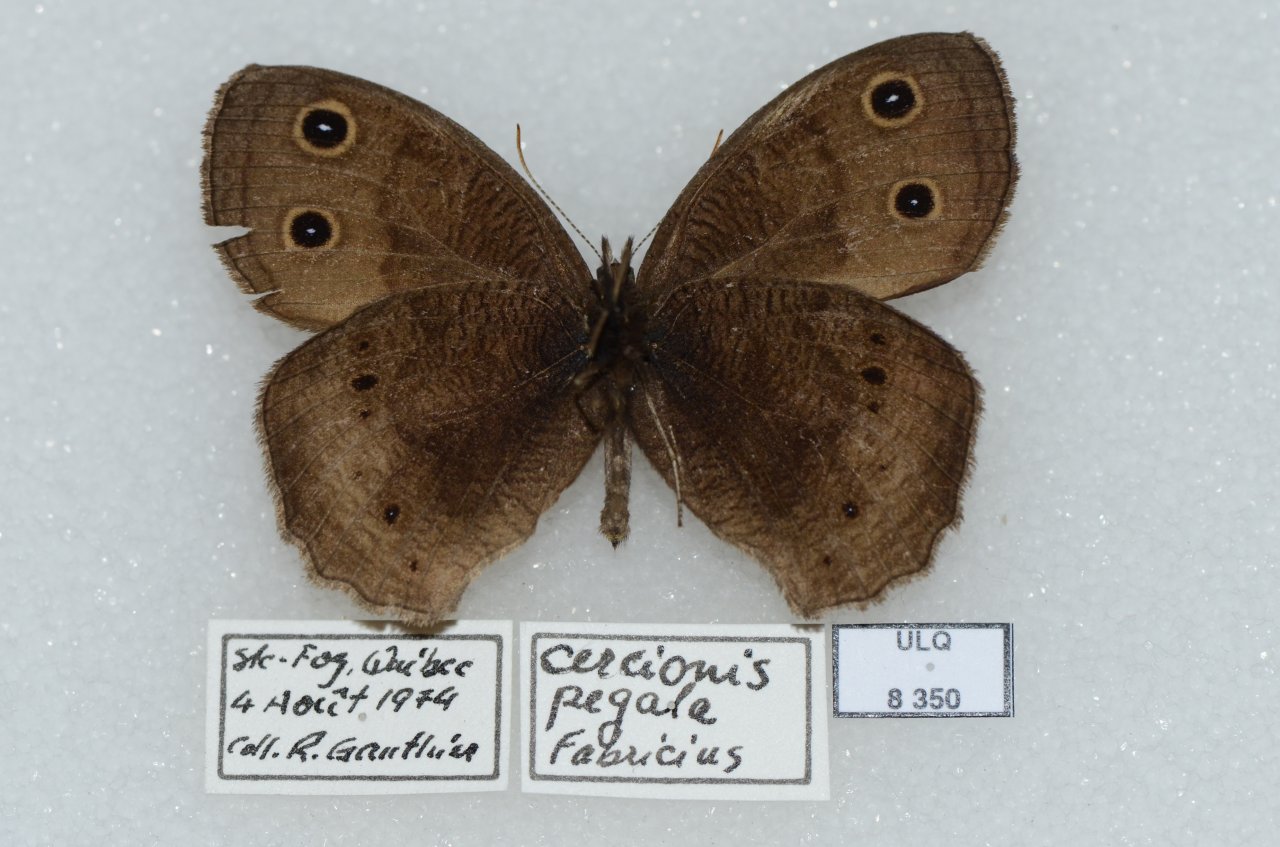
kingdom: Animalia
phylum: Arthropoda
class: Insecta
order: Lepidoptera
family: Nymphalidae
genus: Cercyonis
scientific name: Cercyonis pegala
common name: Common Wood-Nymph
